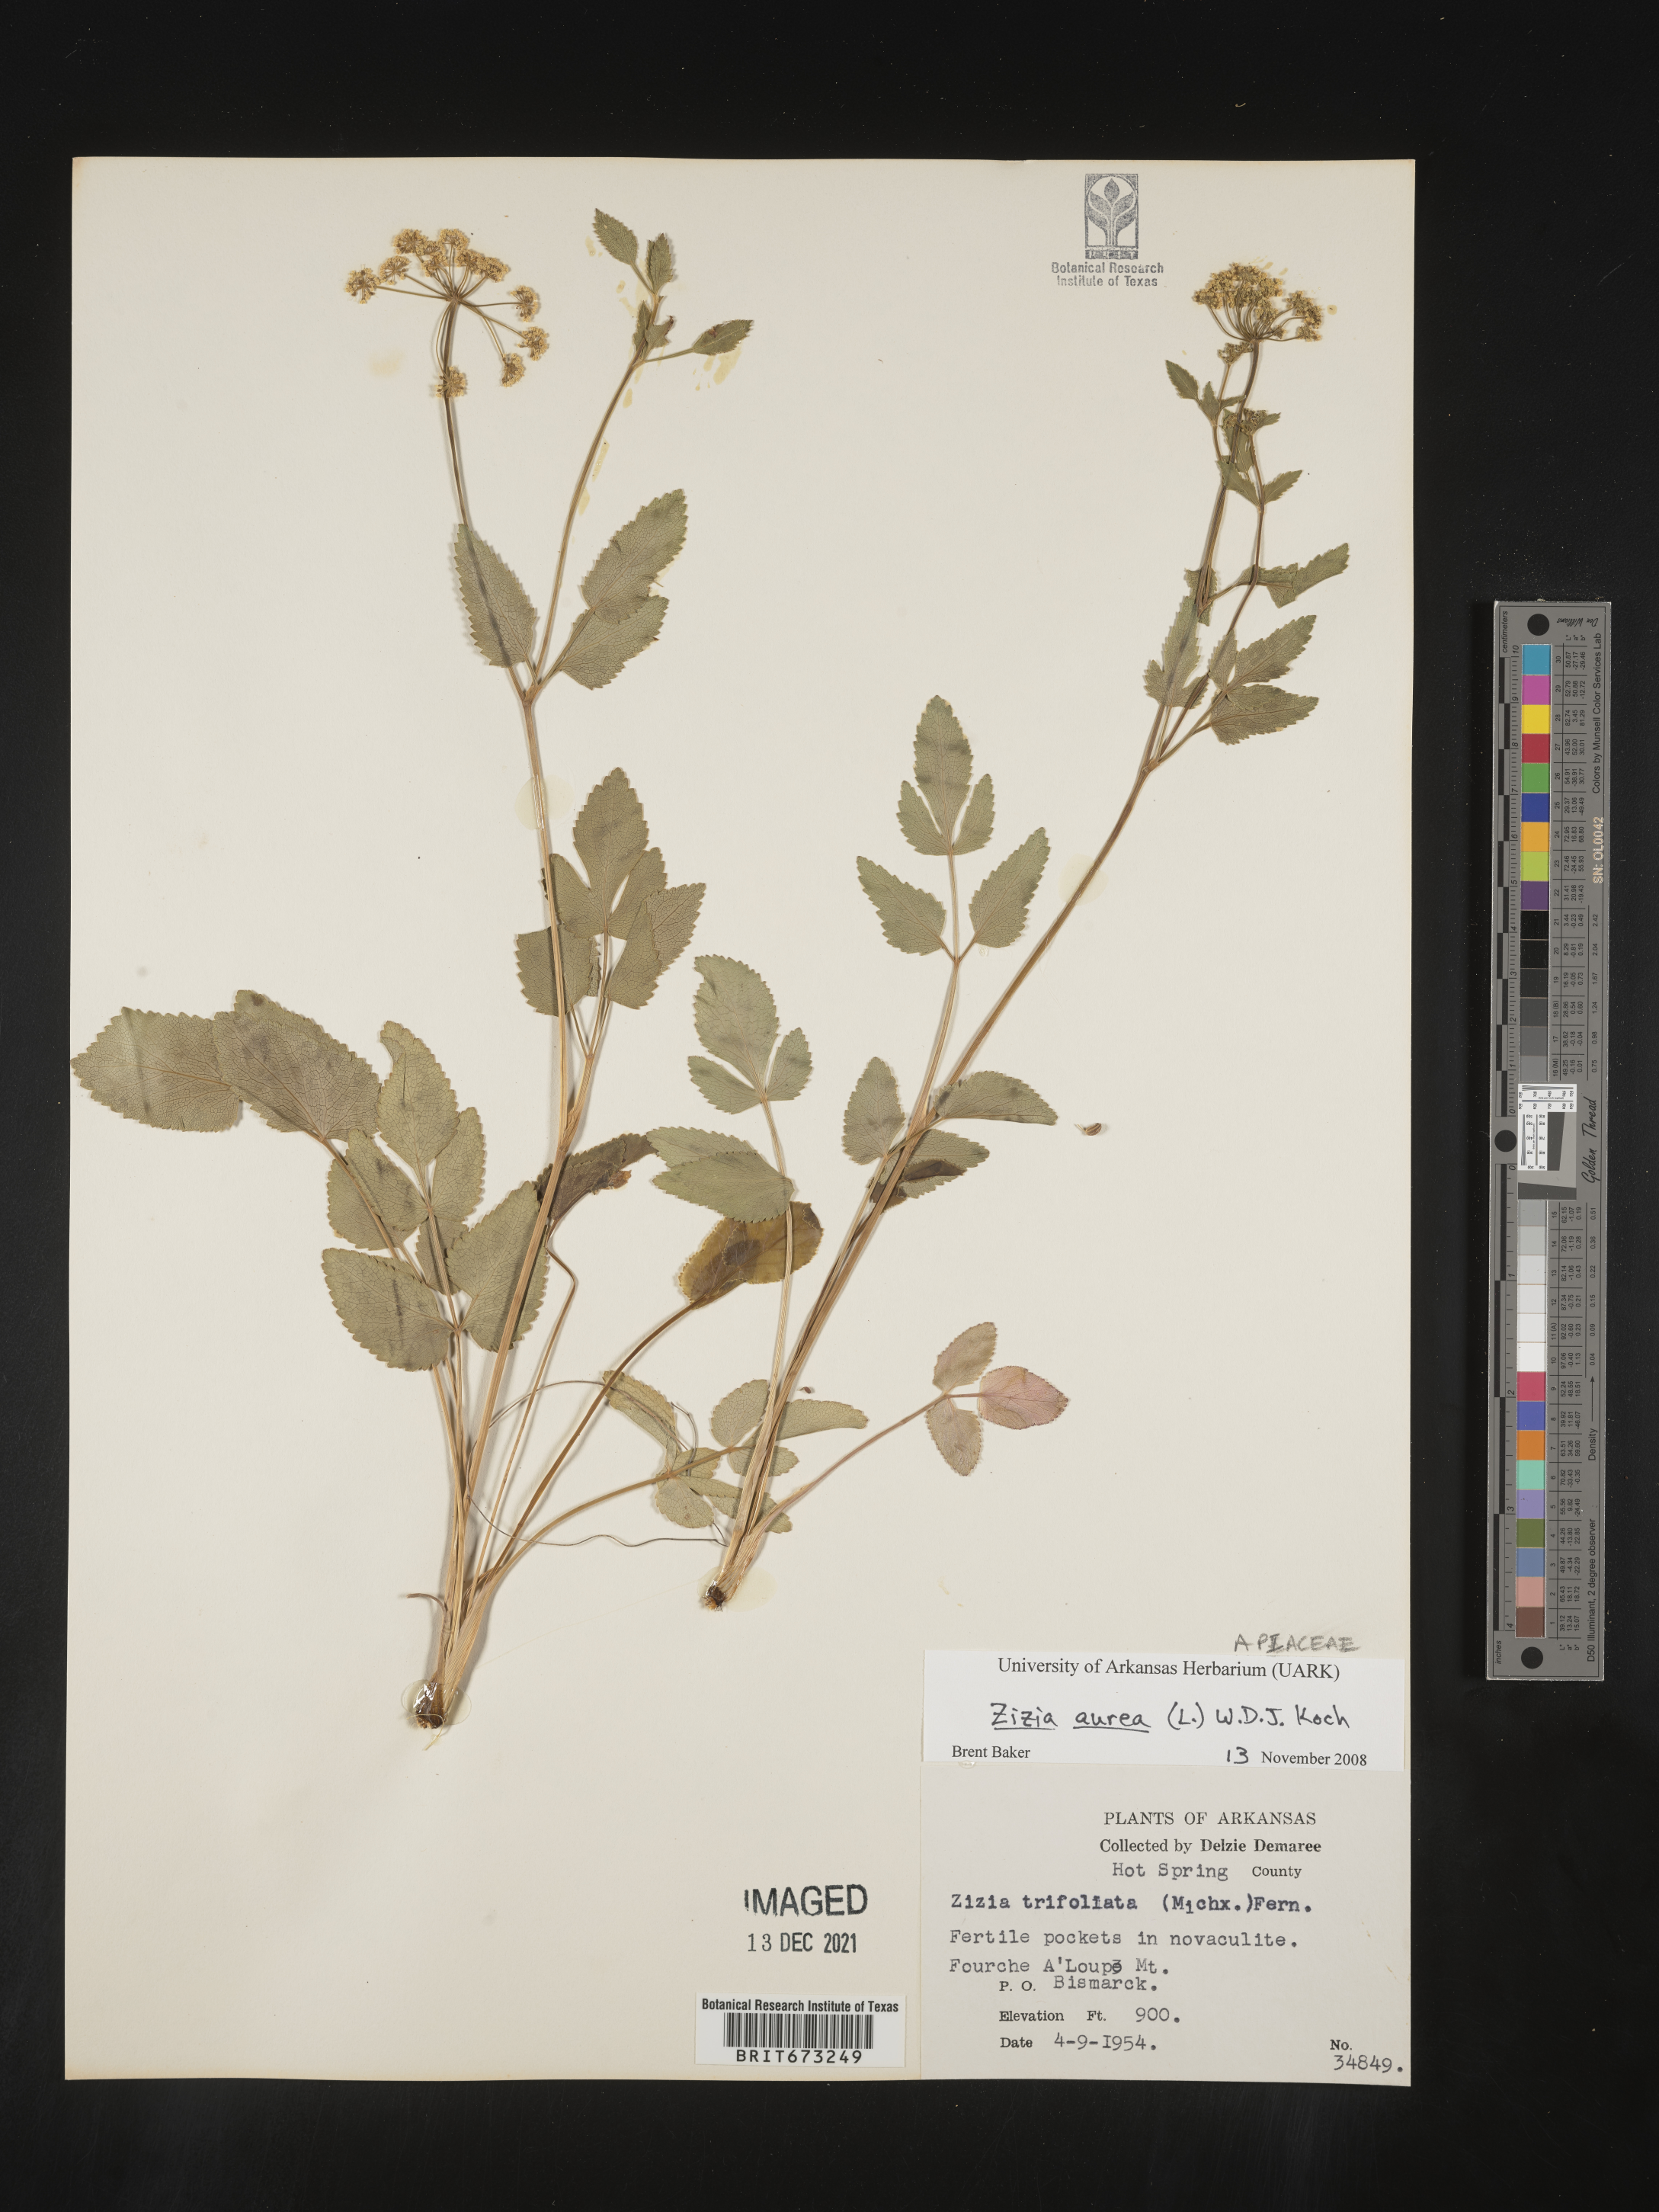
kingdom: Plantae
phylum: Tracheophyta
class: Magnoliopsida
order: Apiales
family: Apiaceae
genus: Zizia
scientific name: Zizia aurea
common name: Golden alexanders
